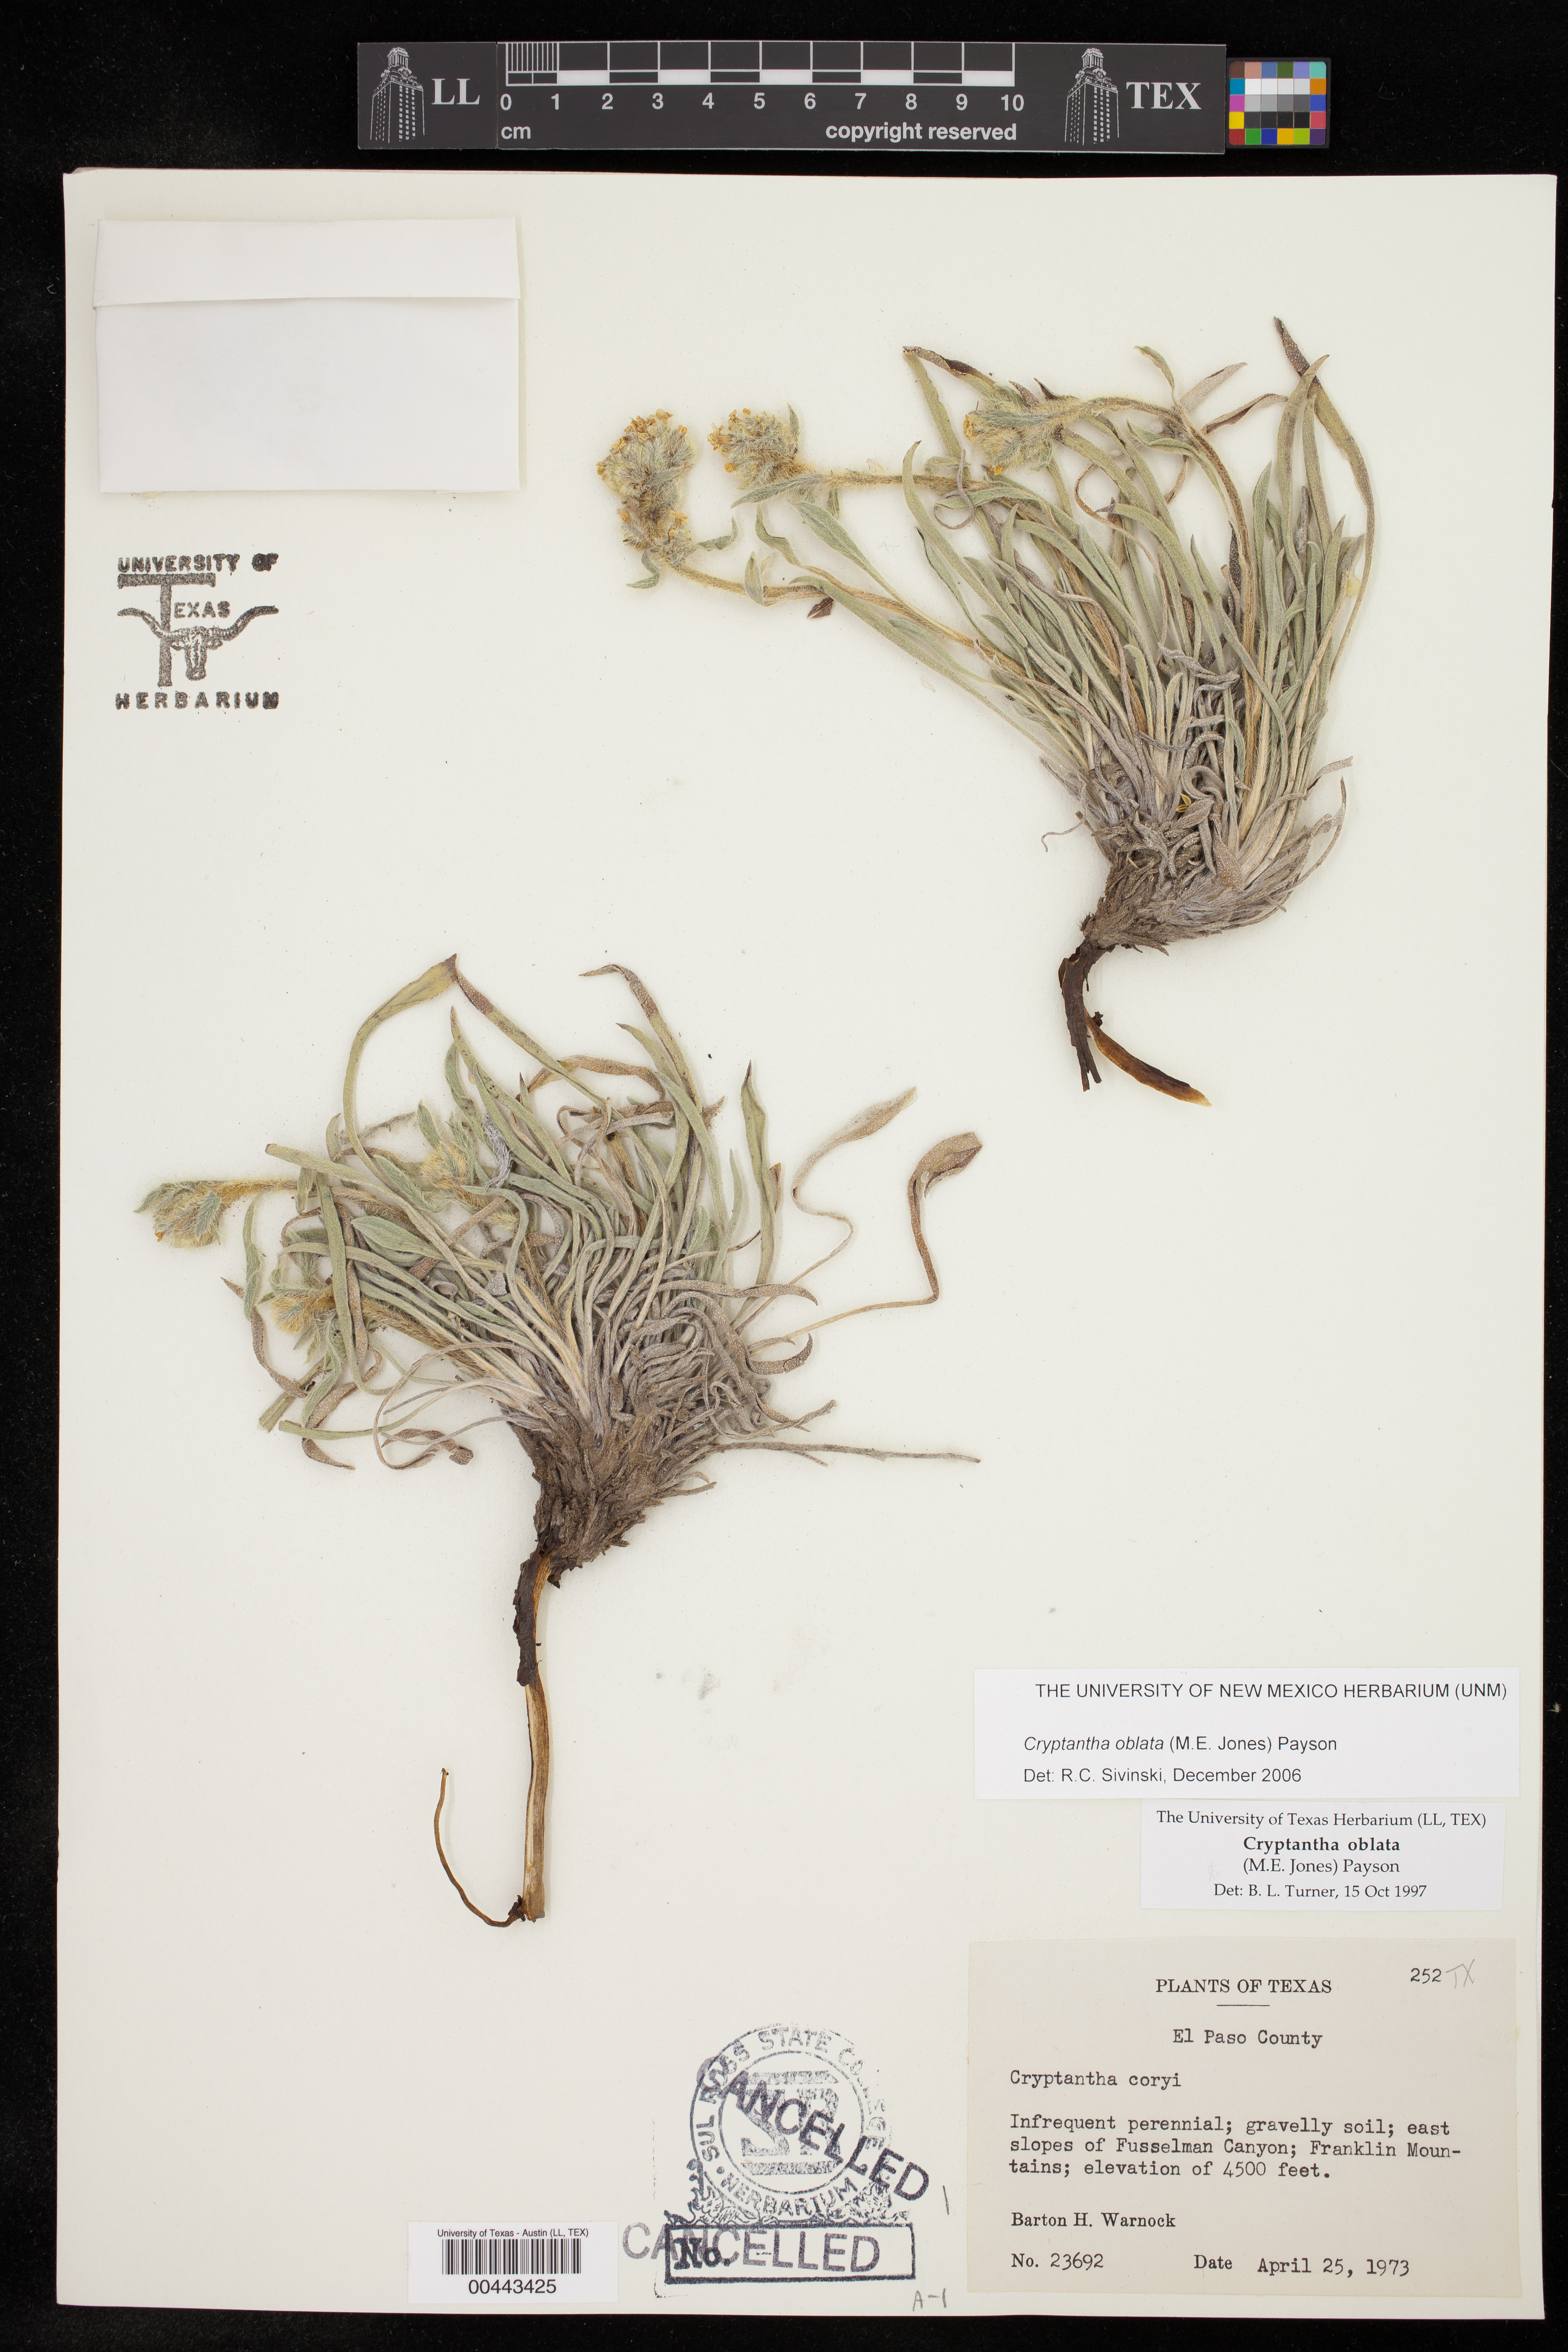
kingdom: Plantae
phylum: Tracheophyta
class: Magnoliopsida
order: Boraginales
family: Boraginaceae
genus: Oreocarya
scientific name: Oreocarya oblata
